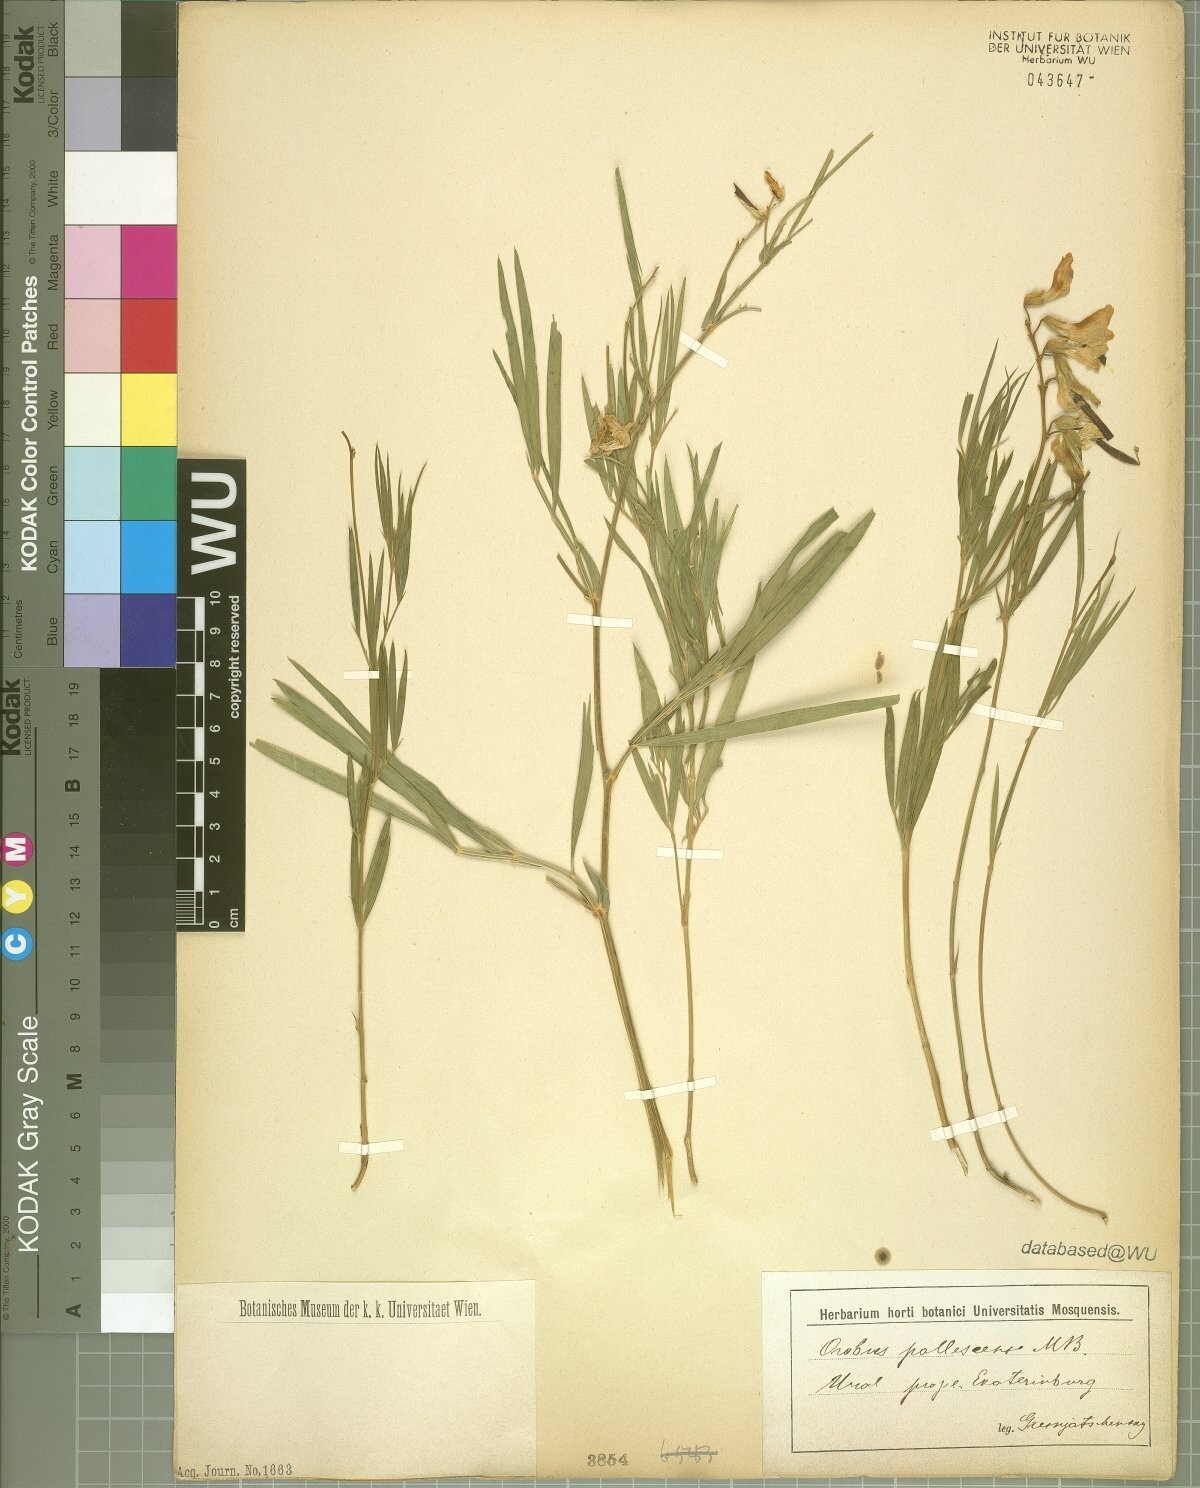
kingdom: Plantae
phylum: Tracheophyta
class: Magnoliopsida
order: Fabales
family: Fabaceae
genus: Lathyrus
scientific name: Lathyrus pallescens
